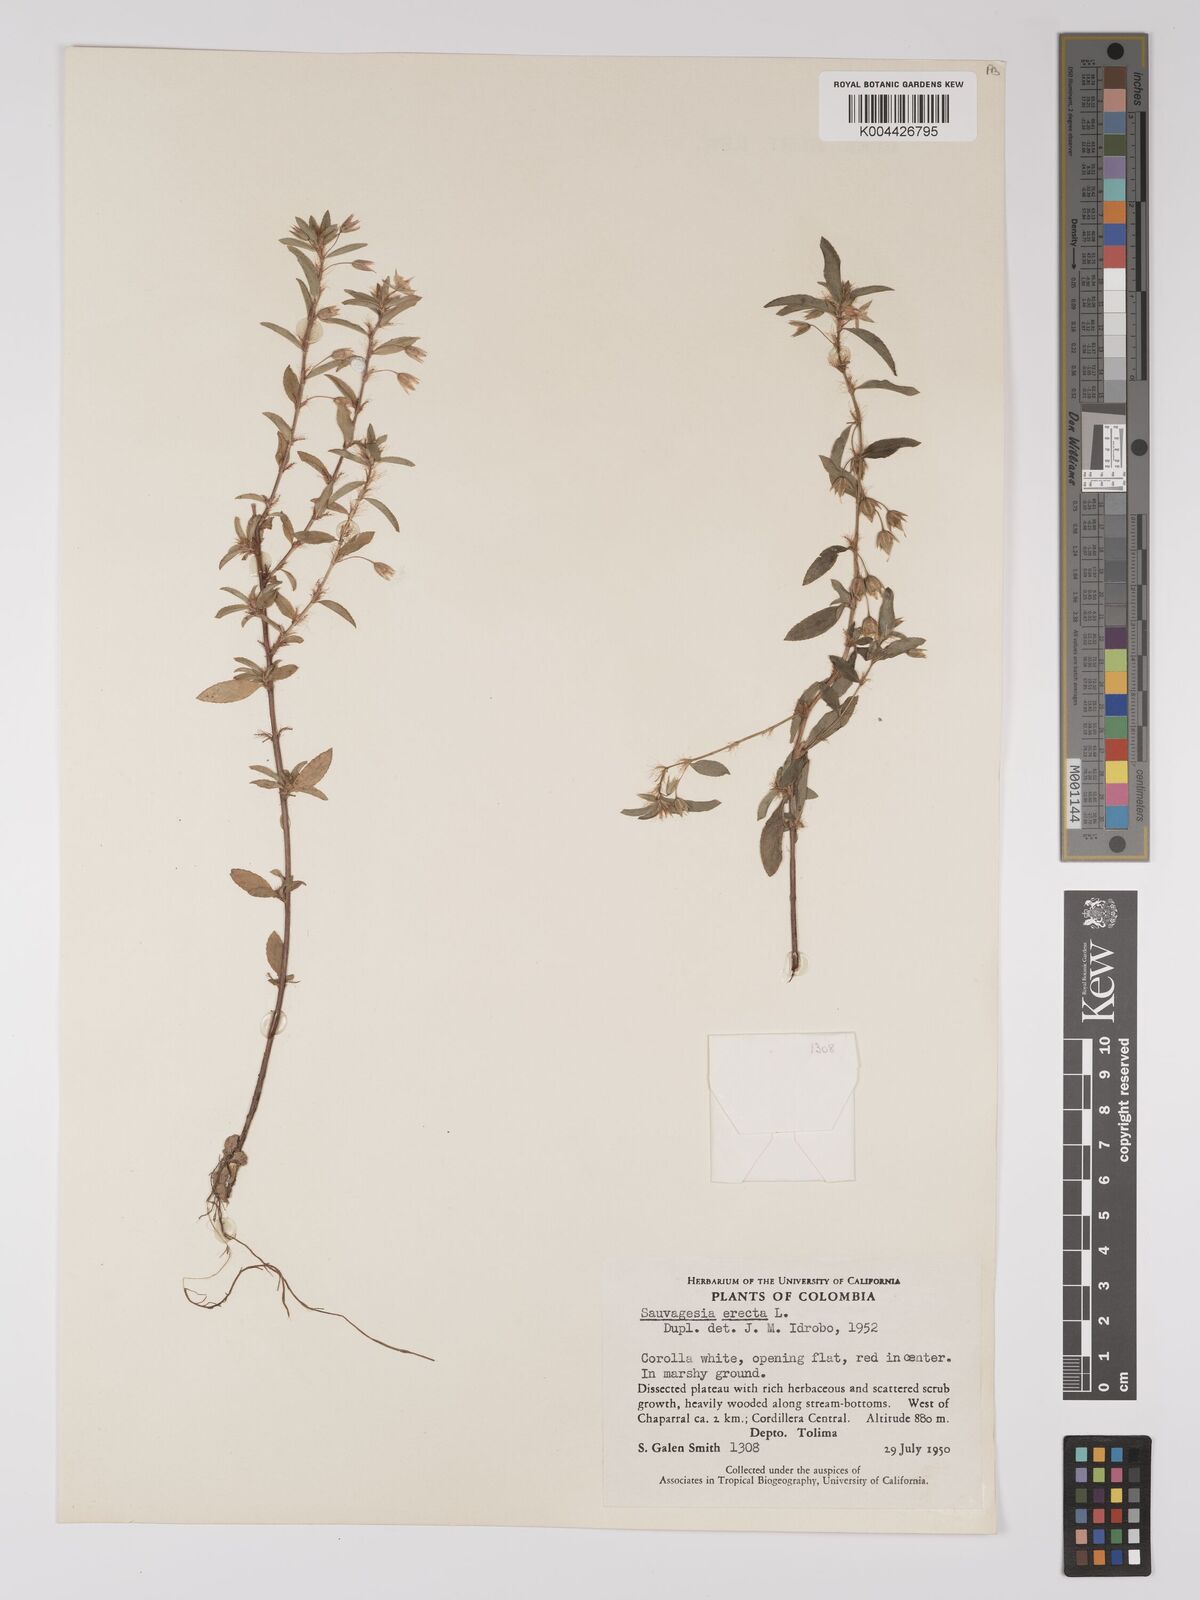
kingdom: Plantae
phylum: Tracheophyta
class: Magnoliopsida
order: Malpighiales
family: Ochnaceae
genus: Sauvagesia
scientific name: Sauvagesia erecta
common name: Creole tea
